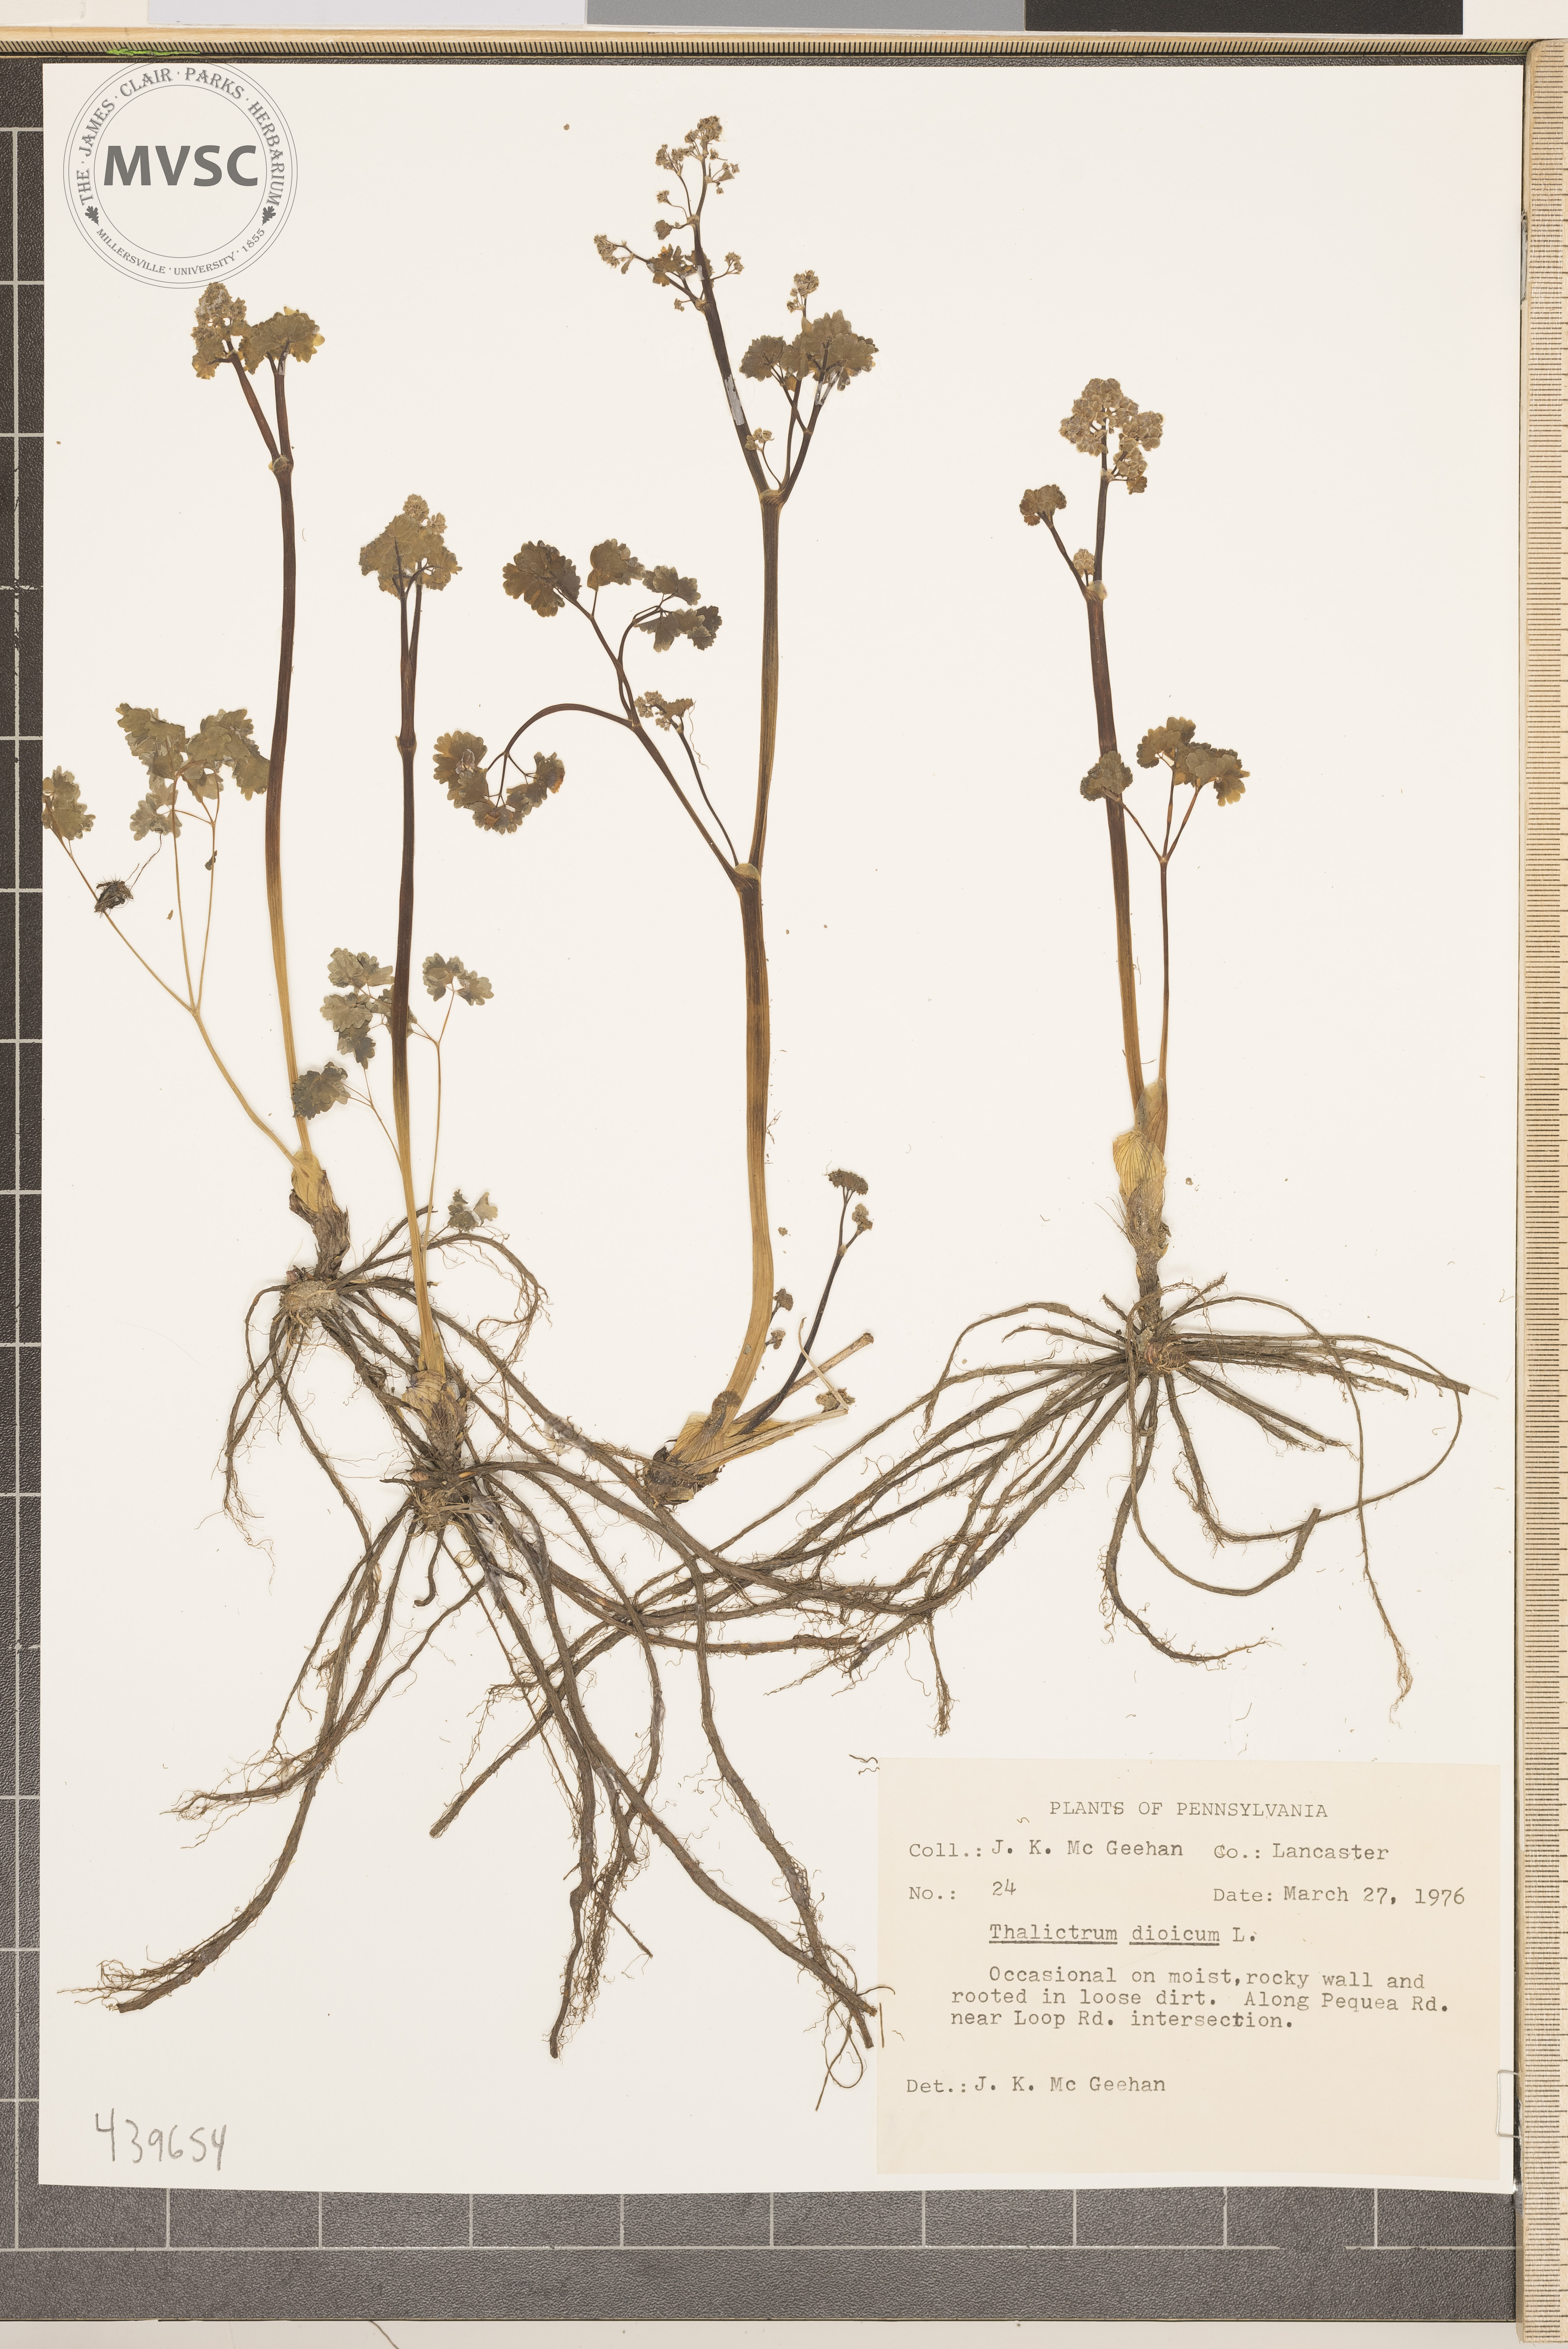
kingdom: Plantae
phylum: Tracheophyta
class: Magnoliopsida
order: Ranunculales
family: Ranunculaceae
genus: Thalictrum
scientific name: Thalictrum dioicum
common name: Early meadow-rue
